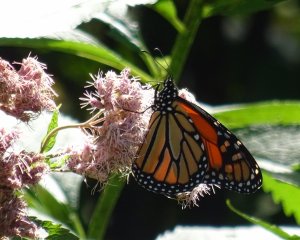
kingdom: Animalia
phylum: Arthropoda
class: Insecta
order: Lepidoptera
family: Nymphalidae
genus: Danaus
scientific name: Danaus plexippus
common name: Monarch
